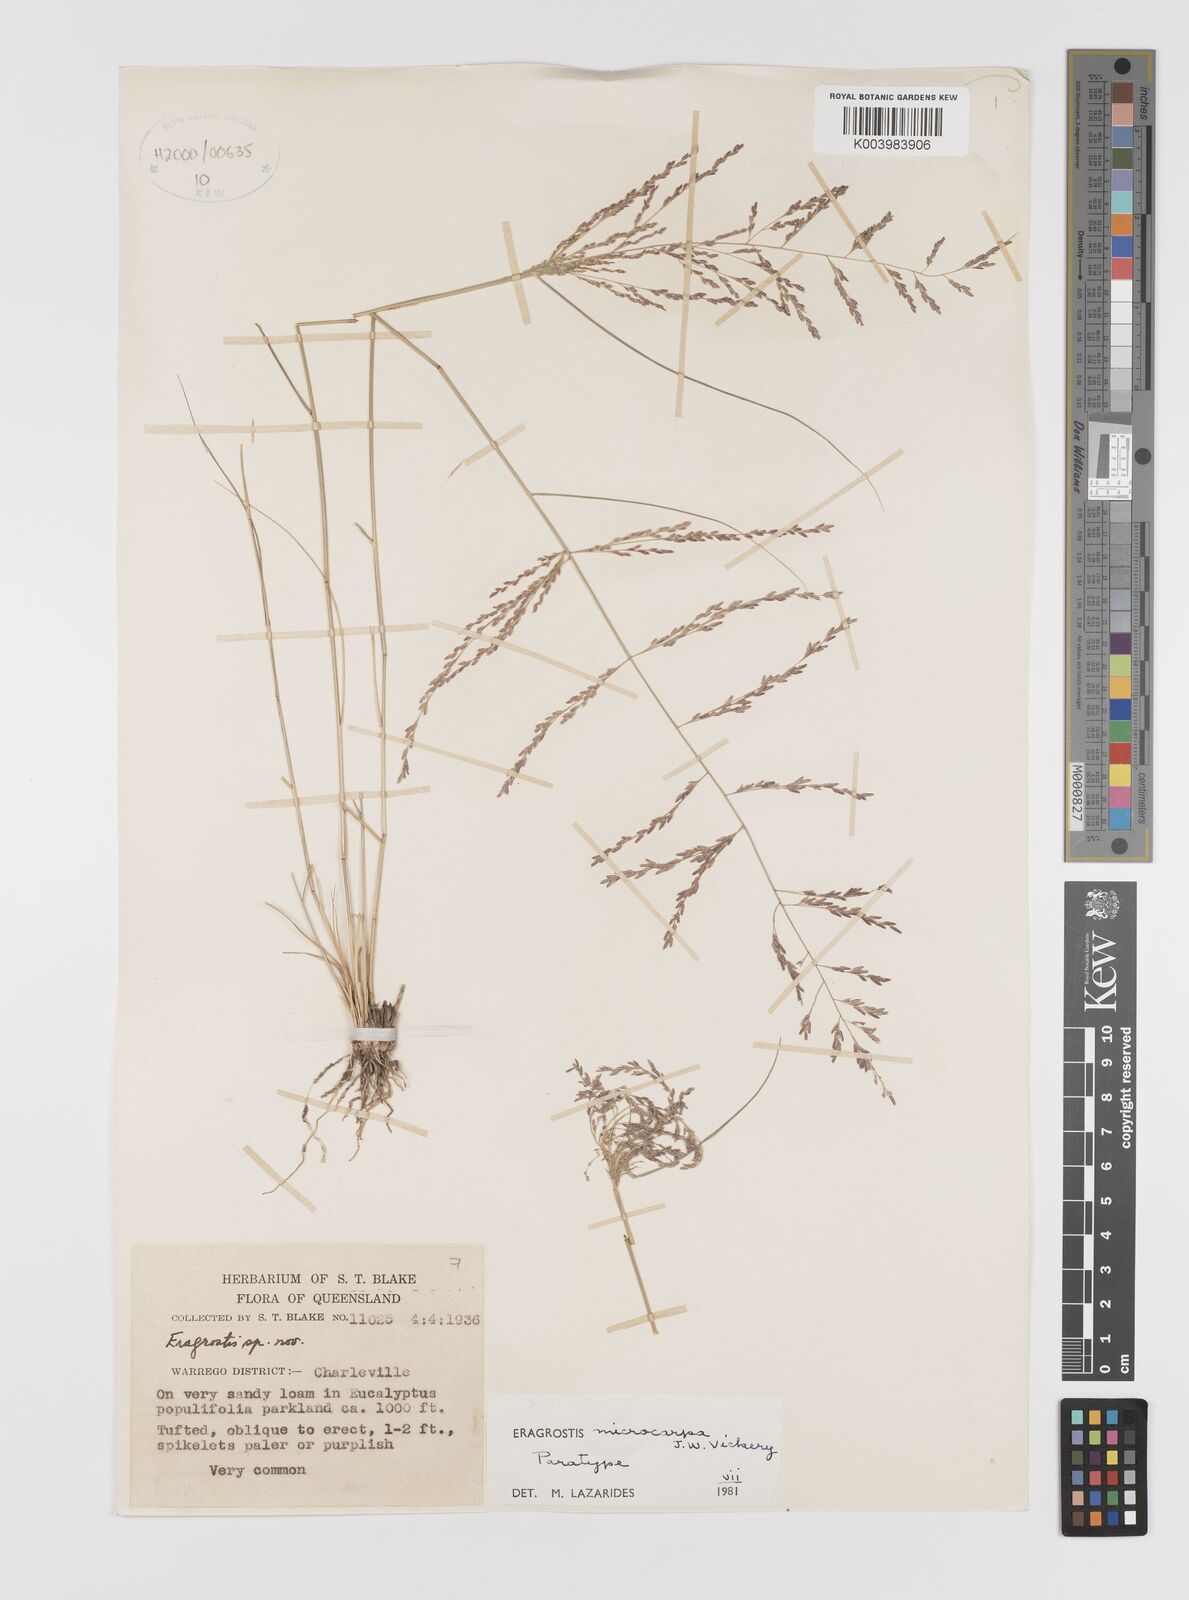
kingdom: Plantae
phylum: Tracheophyta
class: Liliopsida
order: Poales
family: Poaceae
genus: Eragrostis
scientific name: Eragrostis microcarpa
